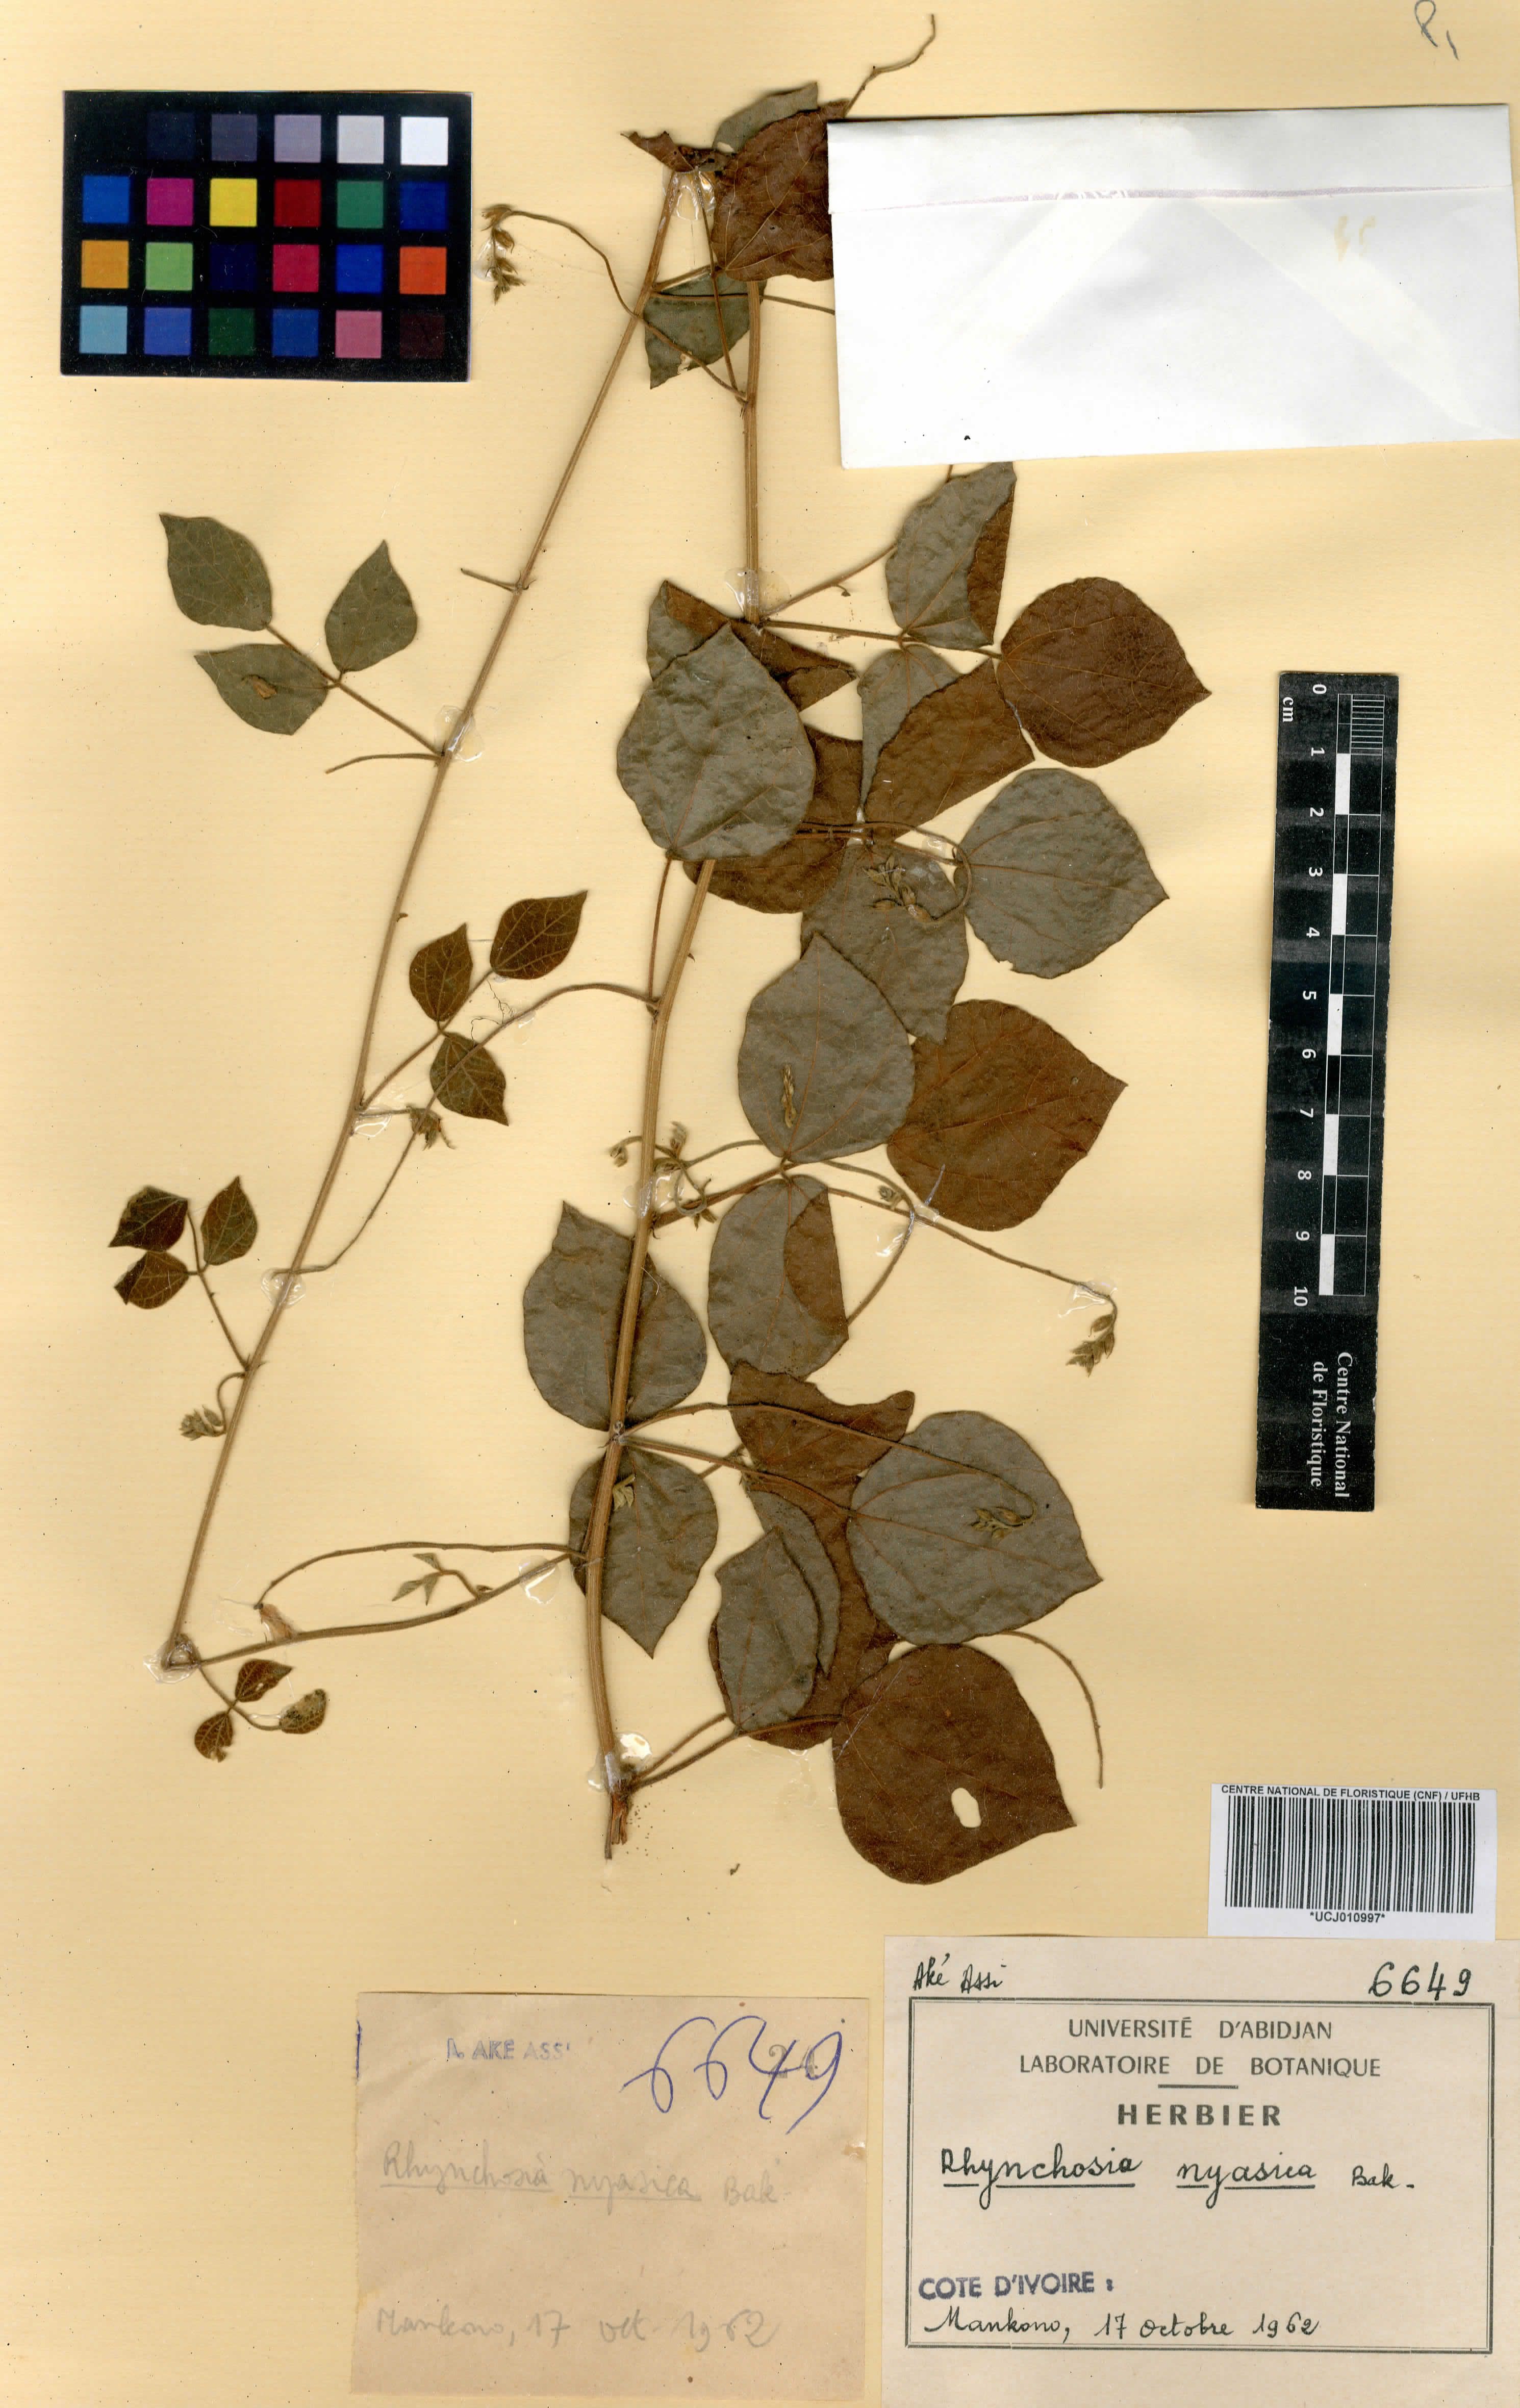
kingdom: Plantae
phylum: Tracheophyta
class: Magnoliopsida
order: Fabales
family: Fabaceae
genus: Rhynchosia
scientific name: Rhynchosia nyasica
